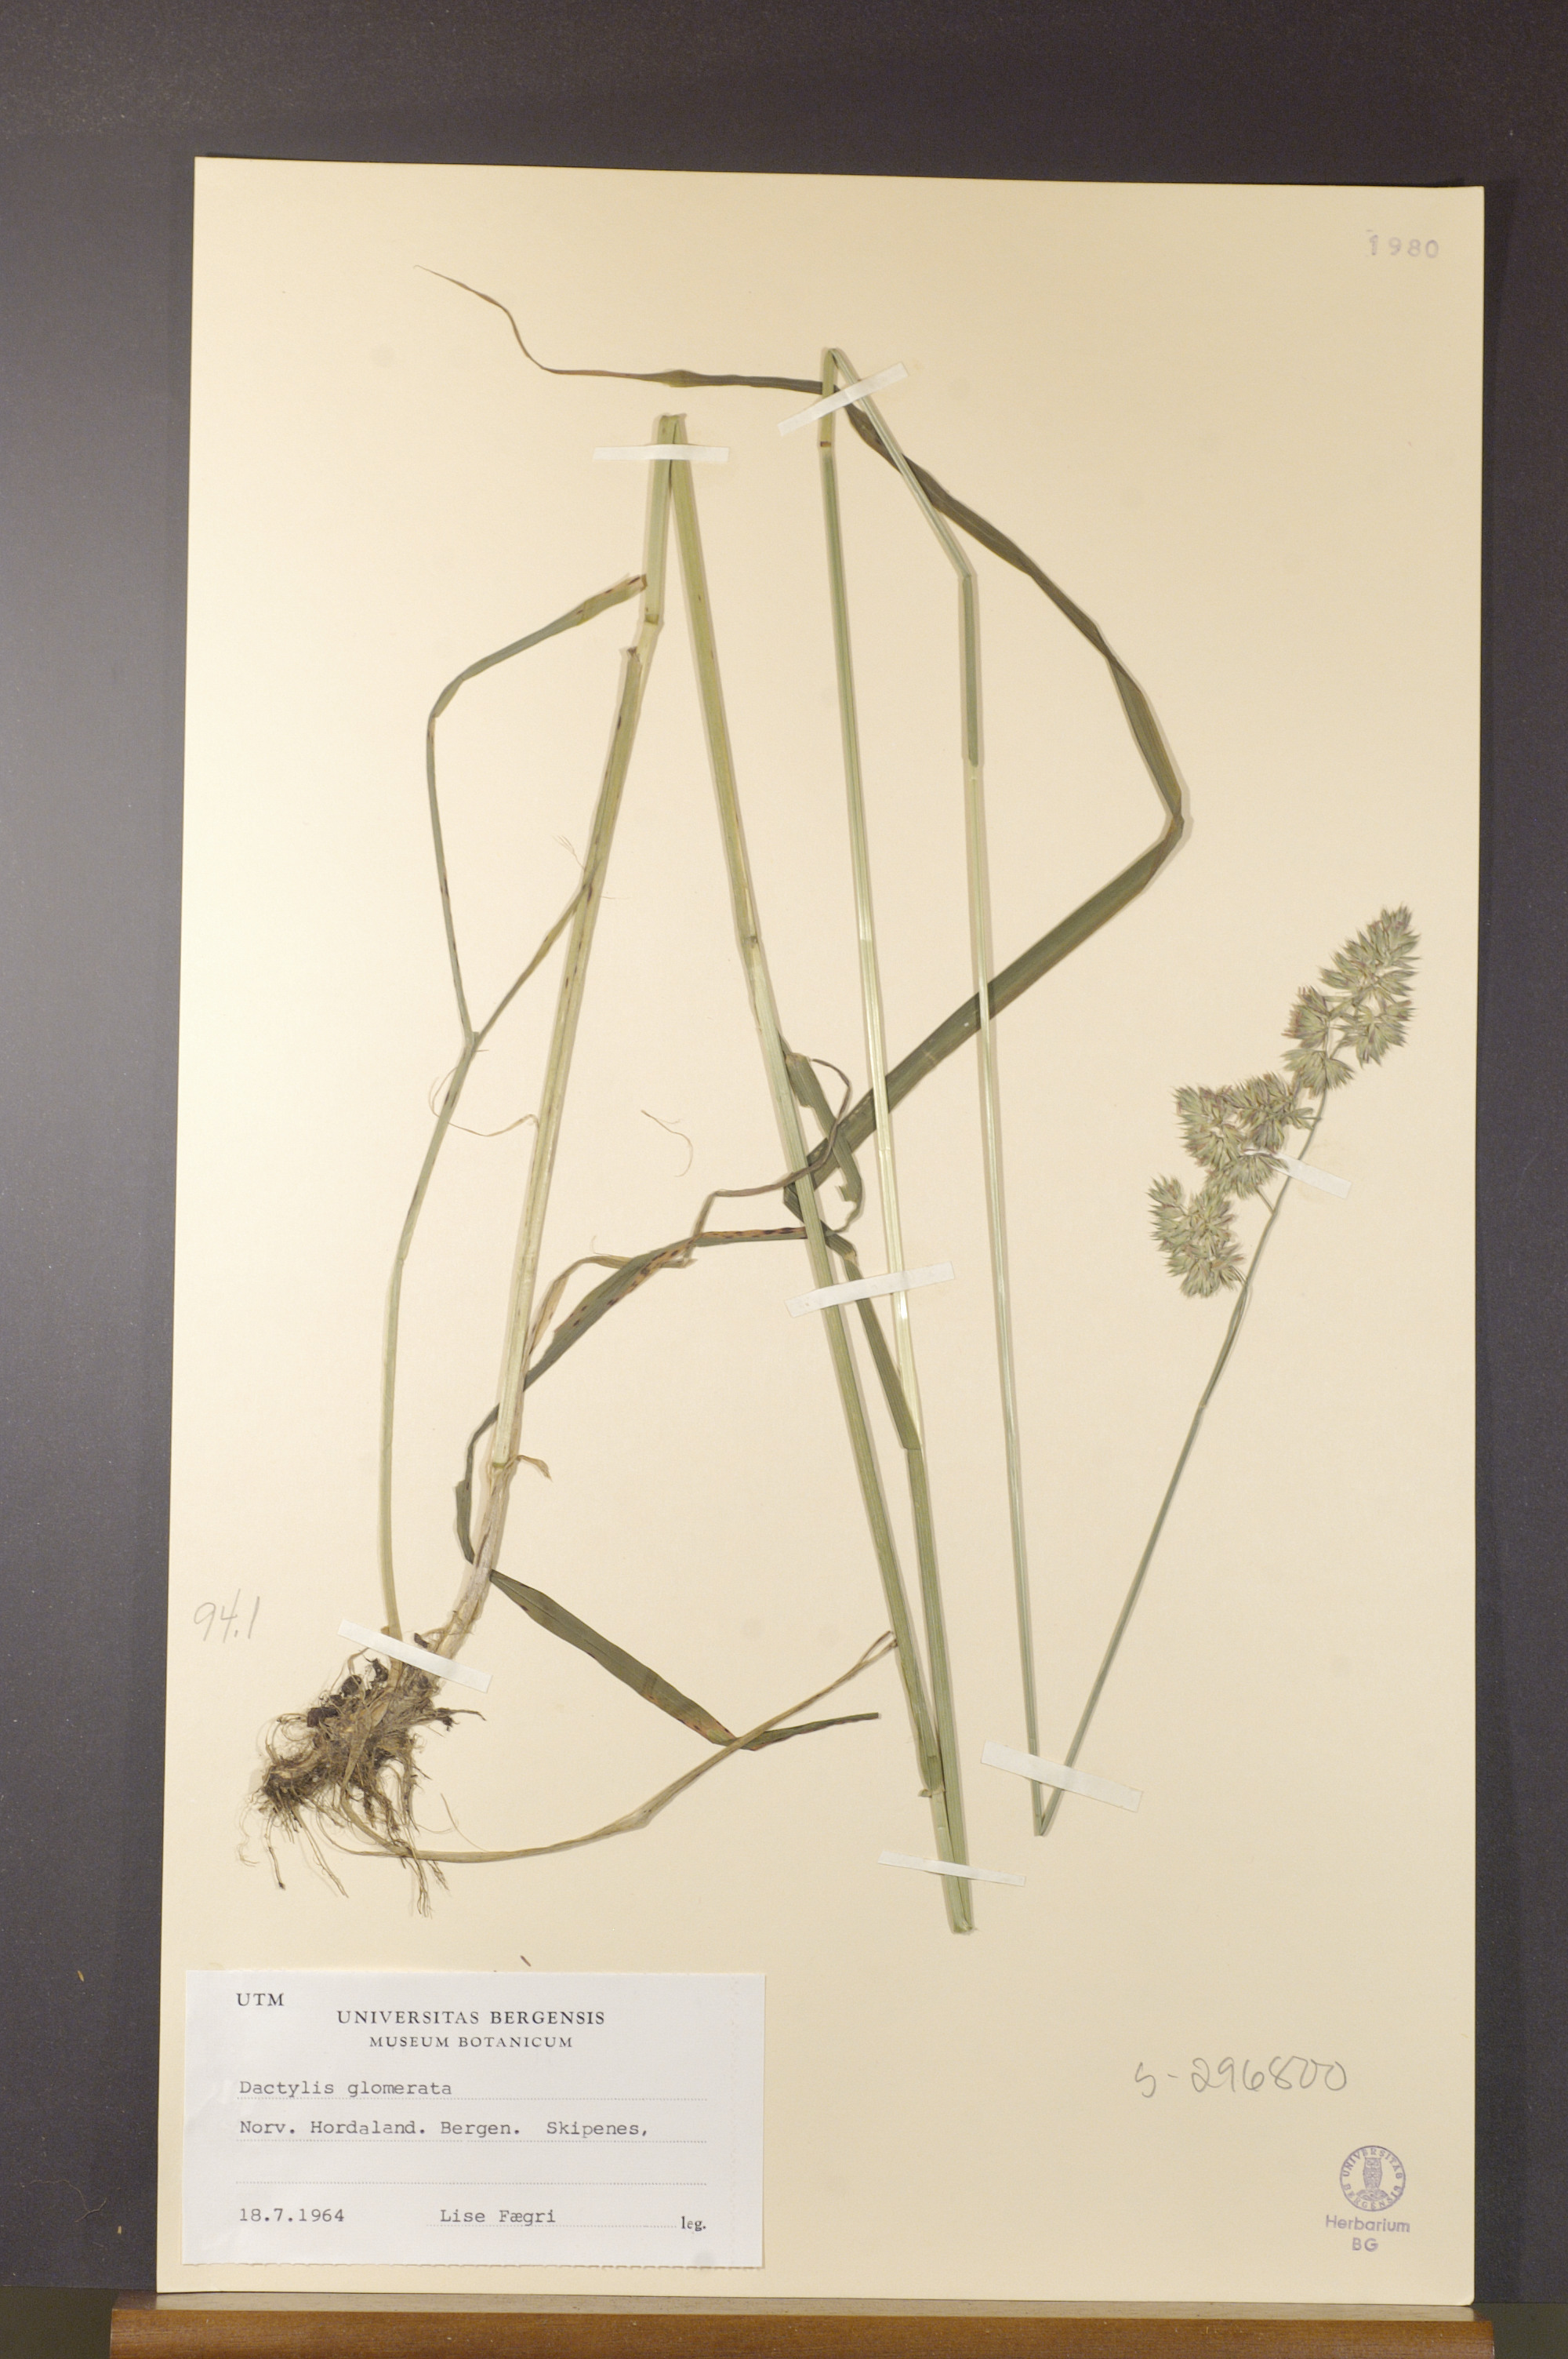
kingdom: Plantae
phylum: Tracheophyta
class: Liliopsida
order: Poales
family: Poaceae
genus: Dactylis
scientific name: Dactylis glomerata
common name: Orchardgrass
